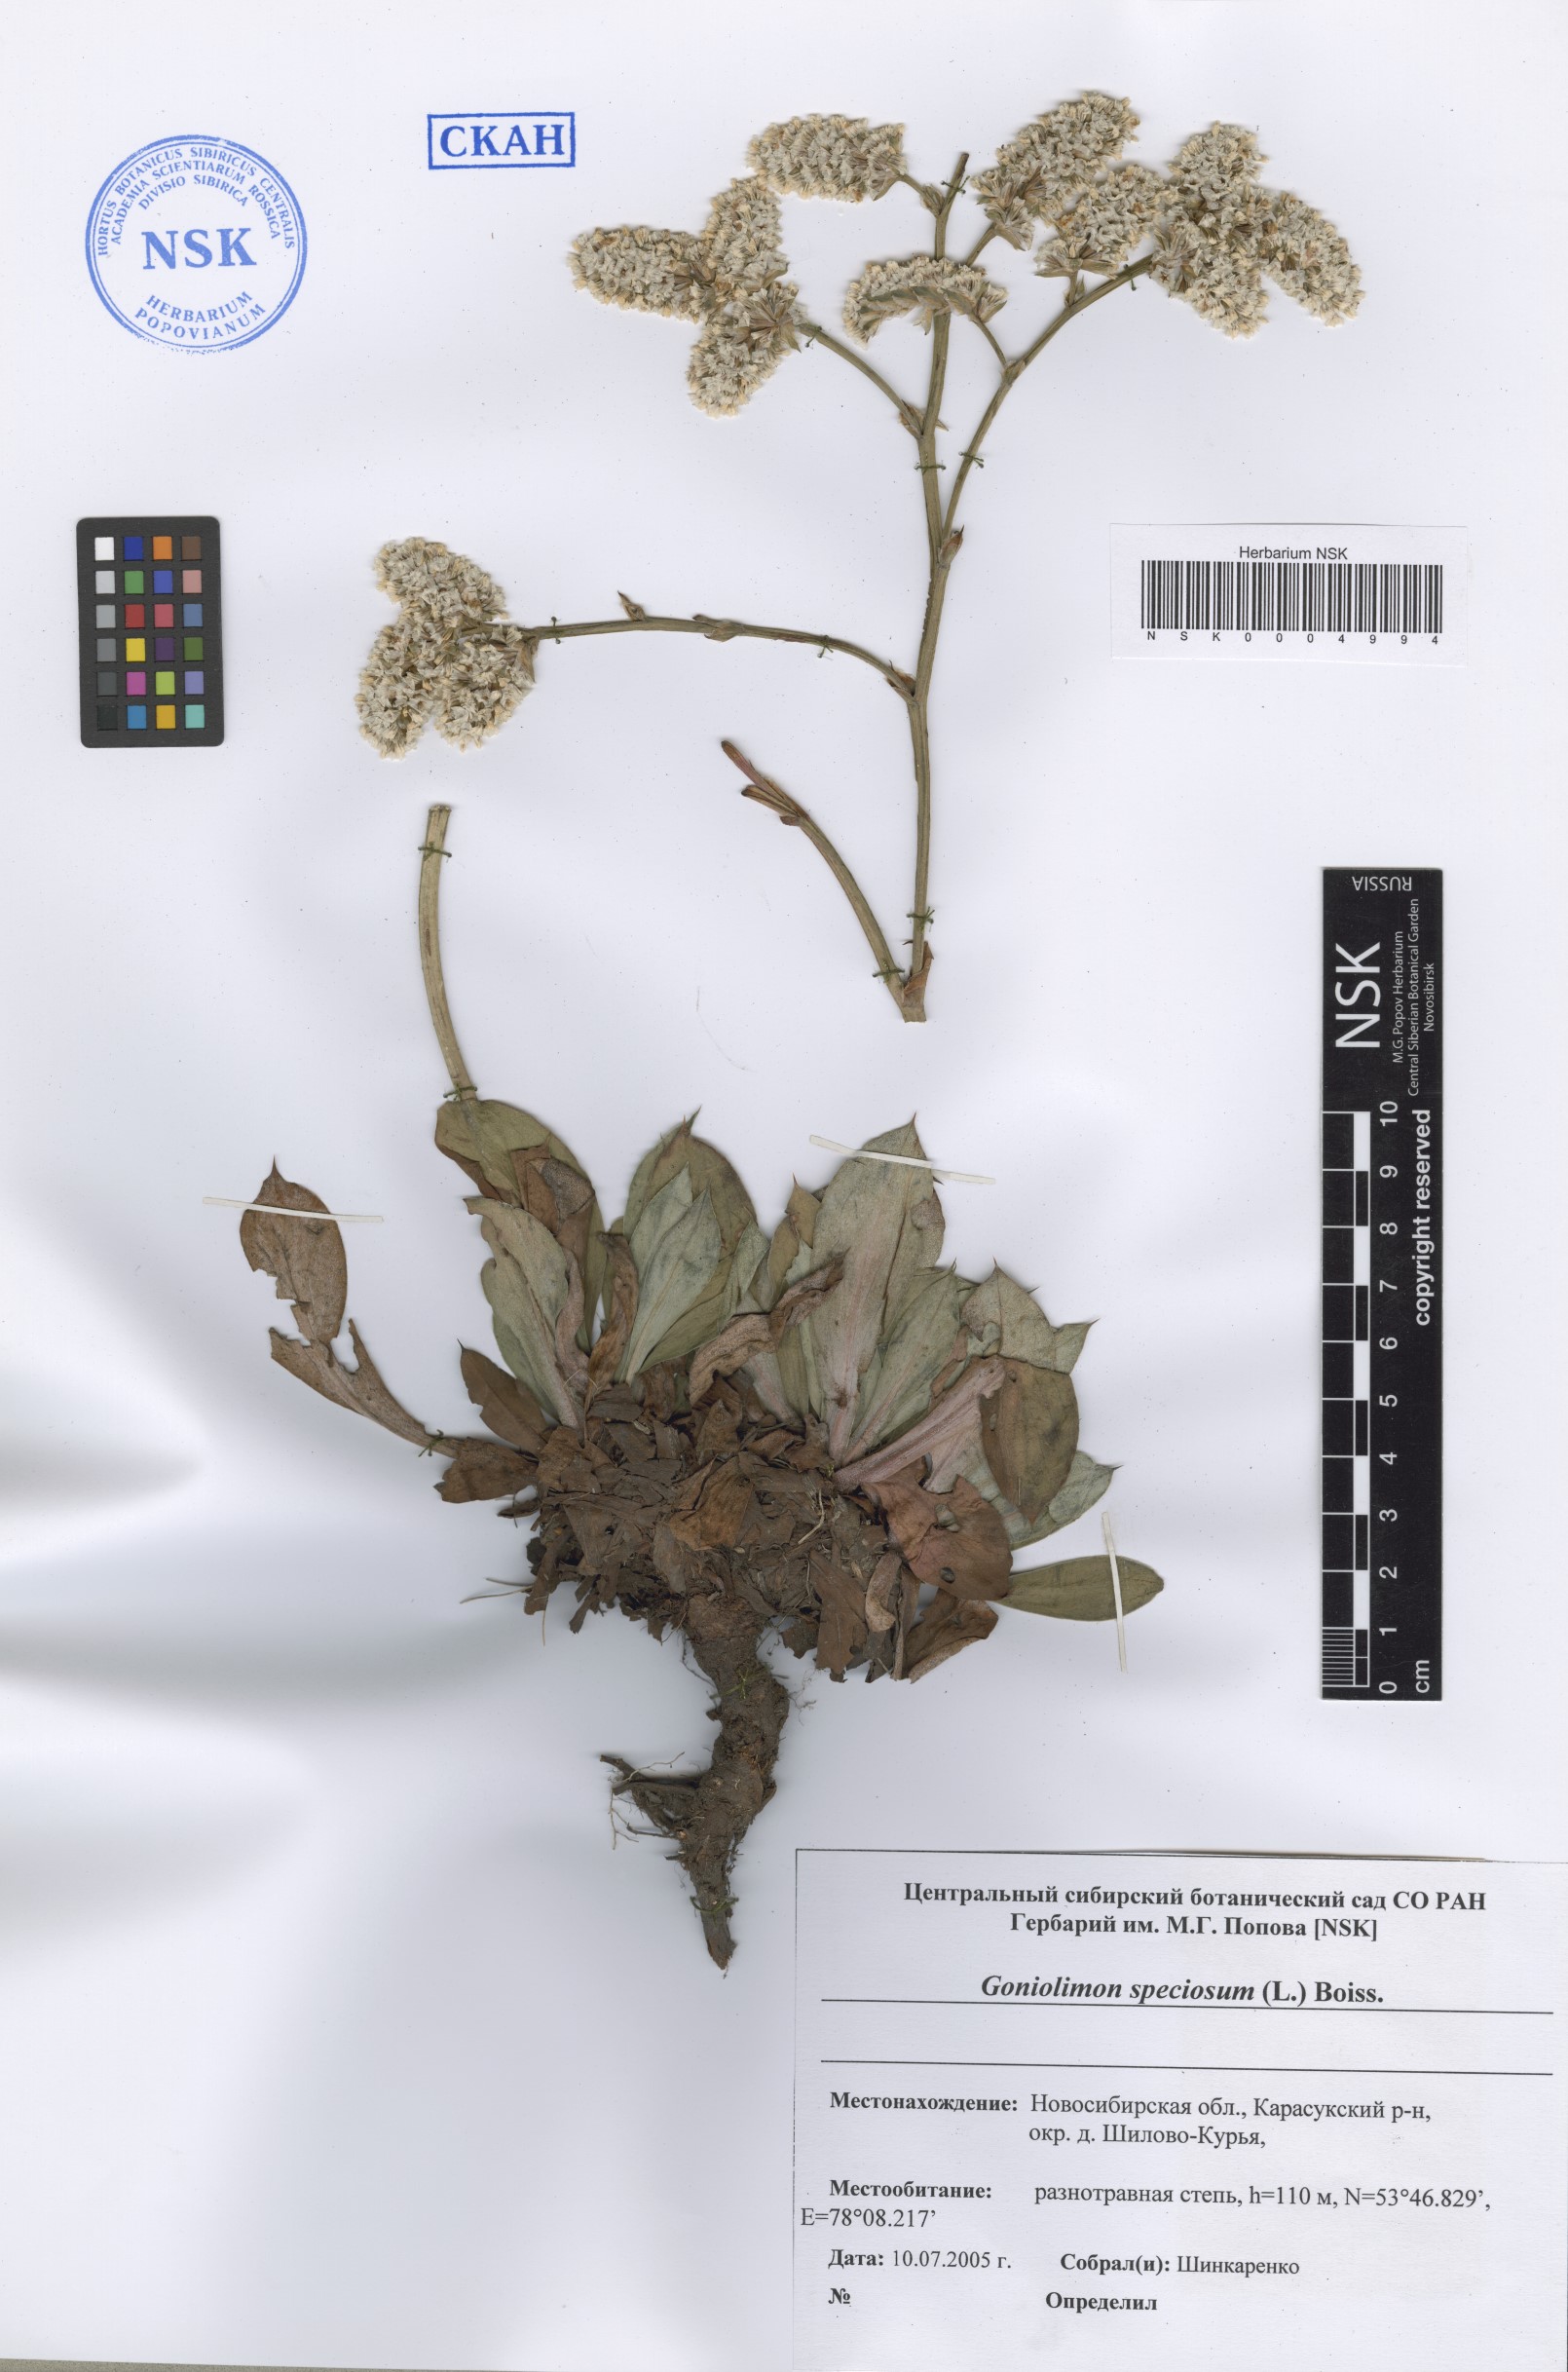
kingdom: Plantae
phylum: Tracheophyta
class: Magnoliopsida
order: Caryophyllales
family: Plumbaginaceae
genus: Goniolimon
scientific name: Goniolimon speciosum
